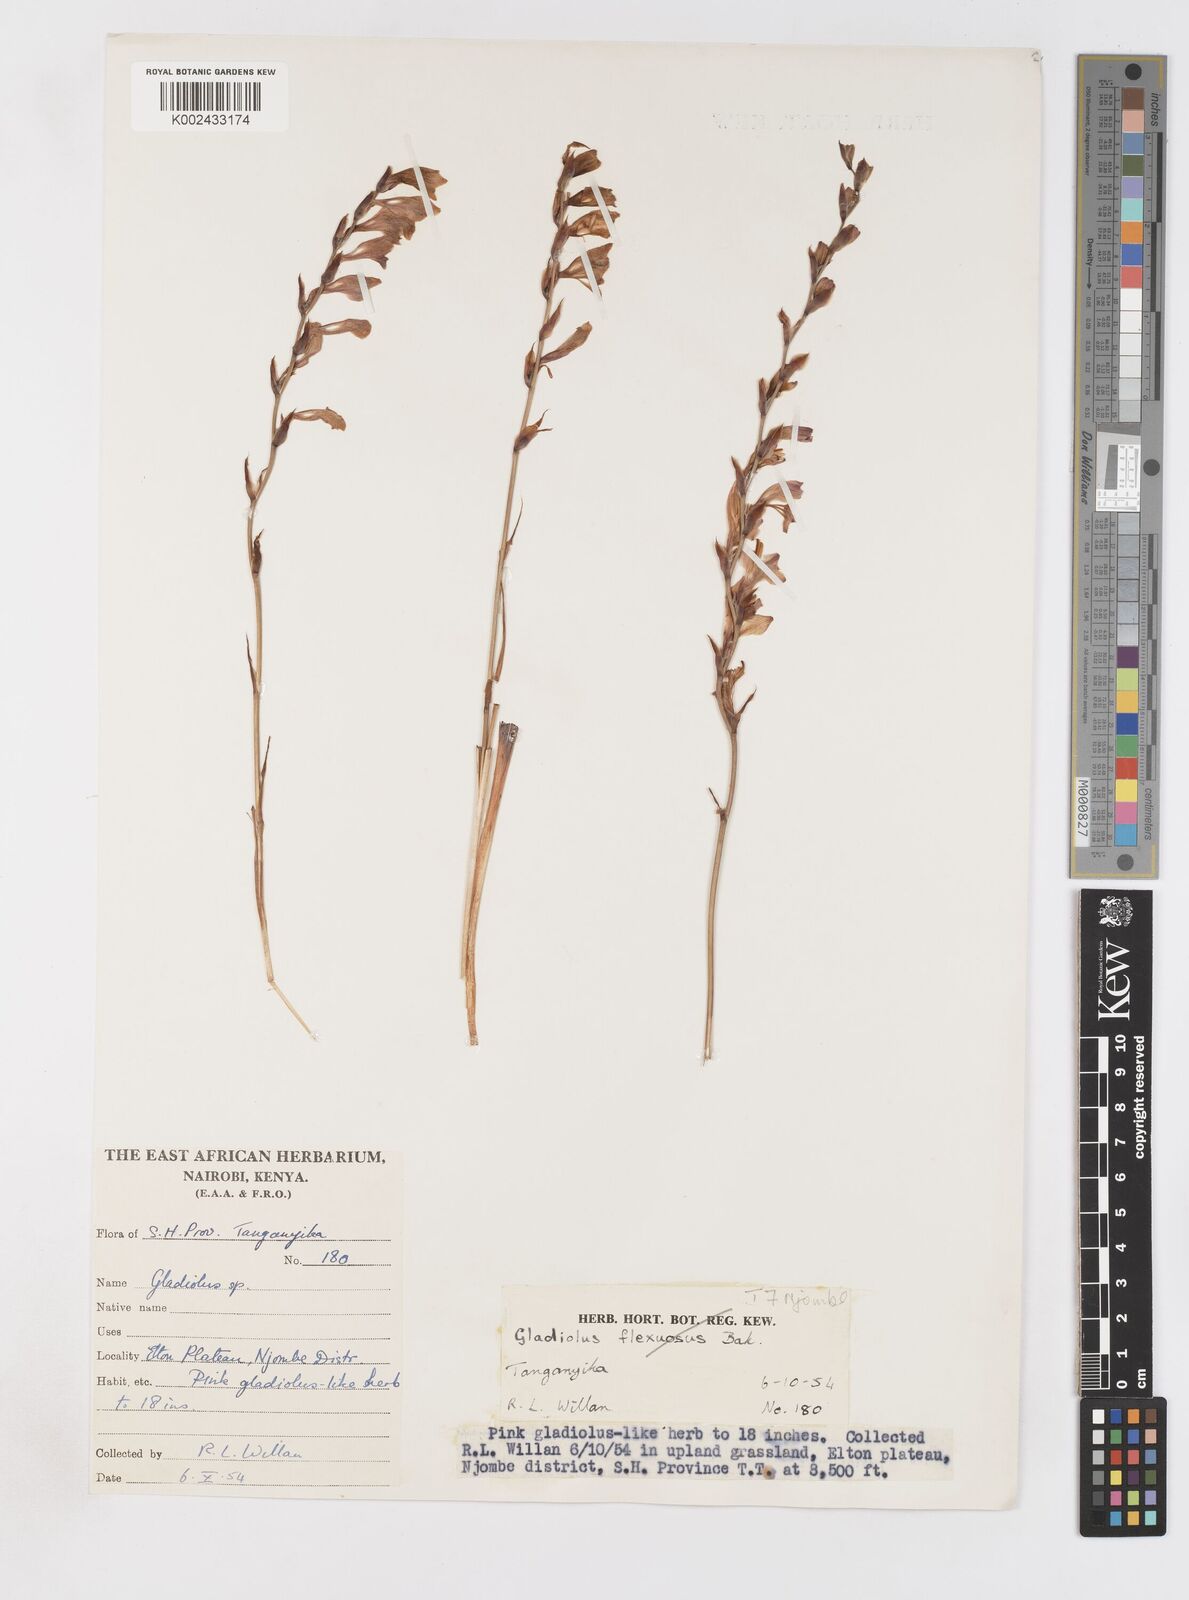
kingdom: Plantae
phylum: Tracheophyta
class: Liliopsida
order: Asparagales
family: Iridaceae
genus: Gladiolus
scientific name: Gladiolus atropurpureus
